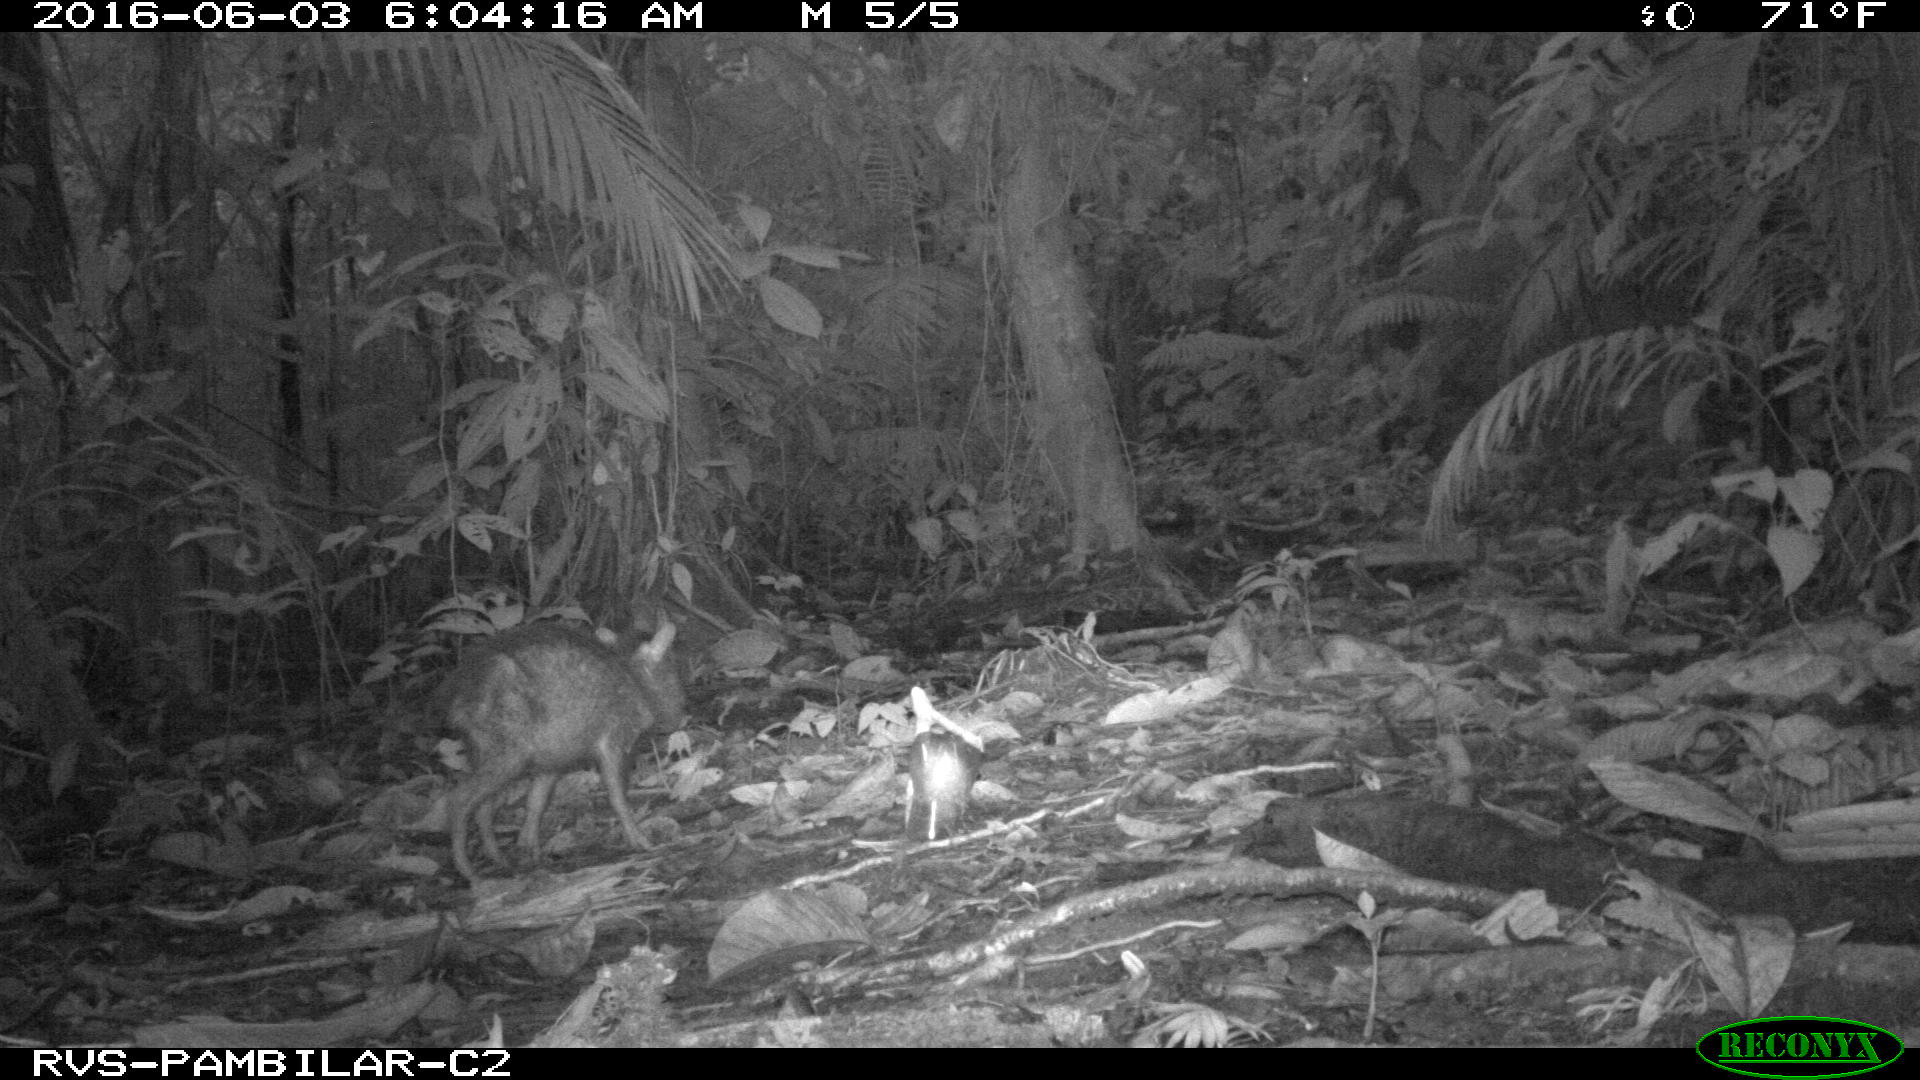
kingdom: Animalia
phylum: Chordata
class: Mammalia
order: Artiodactyla
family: Tayassuidae
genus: Tayassu
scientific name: Tayassu pecari
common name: White-lipped peccary
